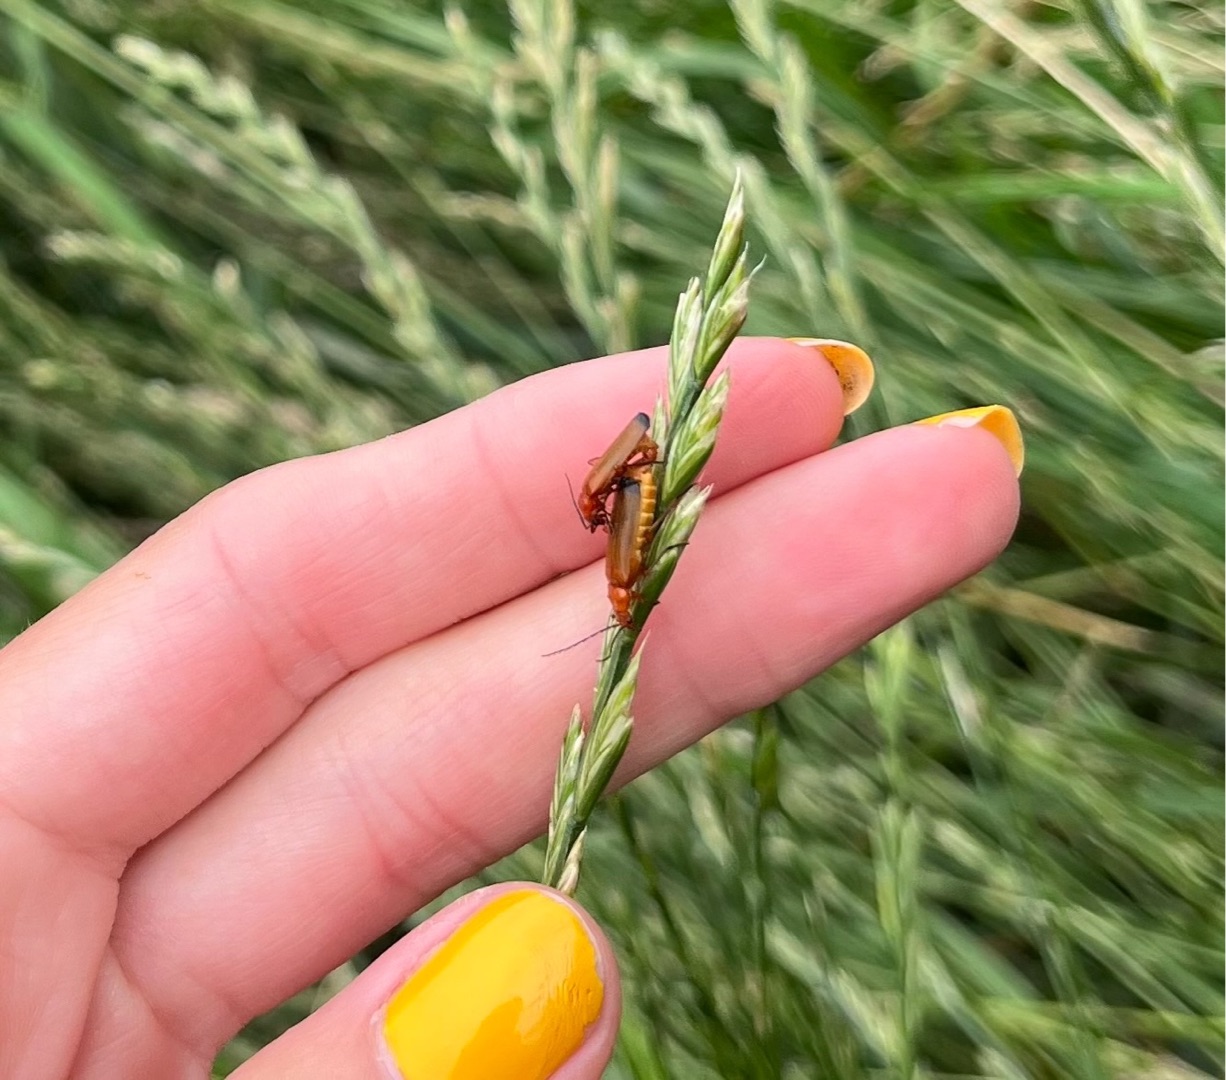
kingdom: Animalia
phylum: Arthropoda
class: Insecta
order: Coleoptera
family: Cantharidae
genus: Rhagonycha
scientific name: Rhagonycha fulva
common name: Præstebille
